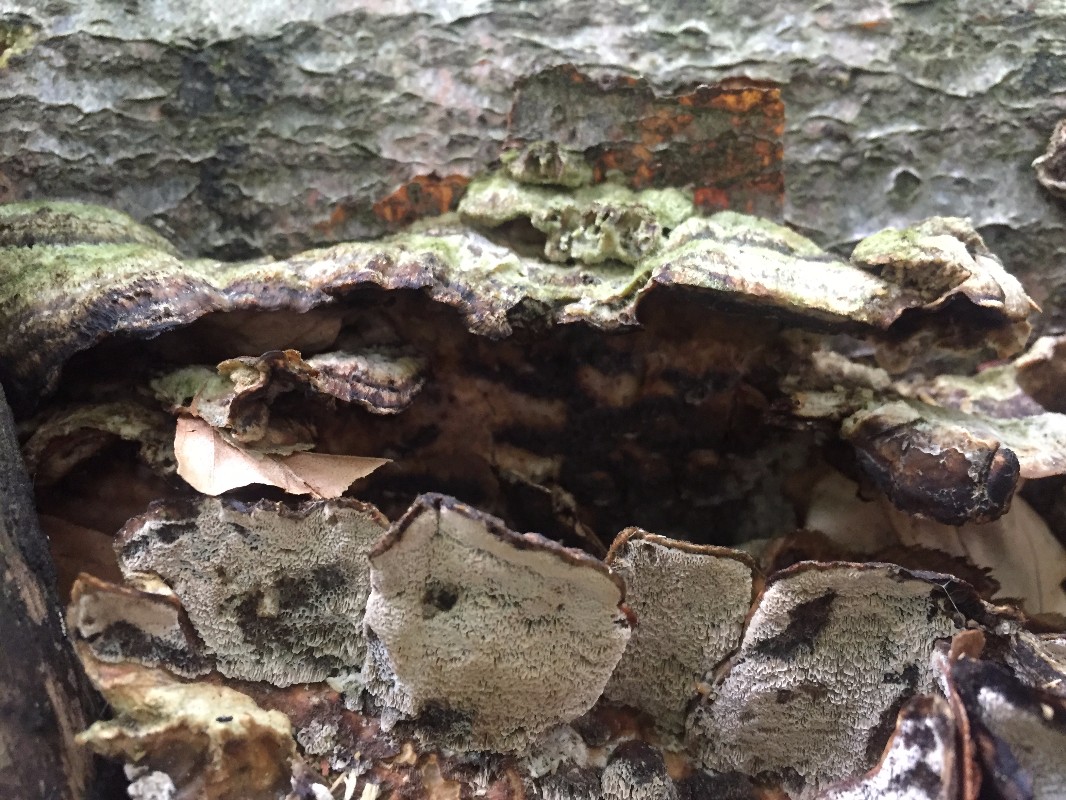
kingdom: Fungi
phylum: Basidiomycota
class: Agaricomycetes
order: Polyporales
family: Phanerochaetaceae
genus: Bjerkandera
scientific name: Bjerkandera adusta
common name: sveden sodporesvamp
